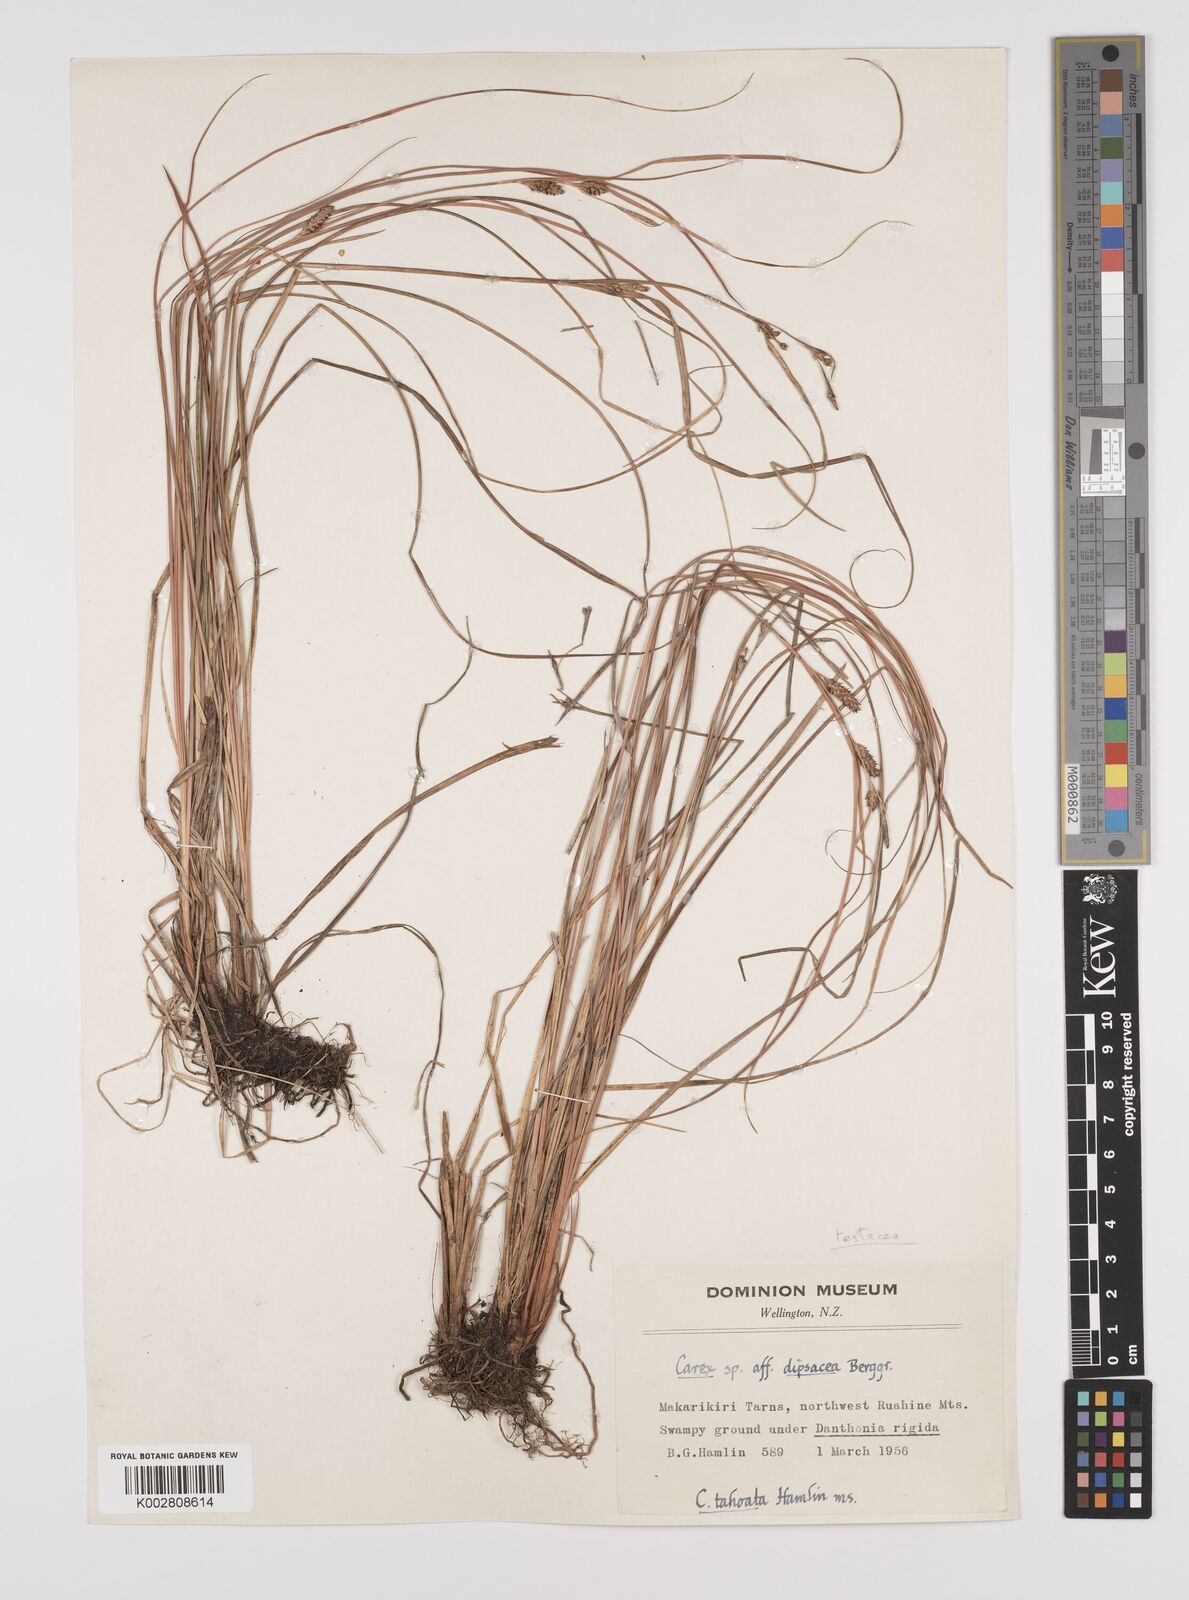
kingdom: Plantae
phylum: Tracheophyta
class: Liliopsida
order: Poales
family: Cyperaceae
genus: Carex
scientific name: Carex dipsacea
